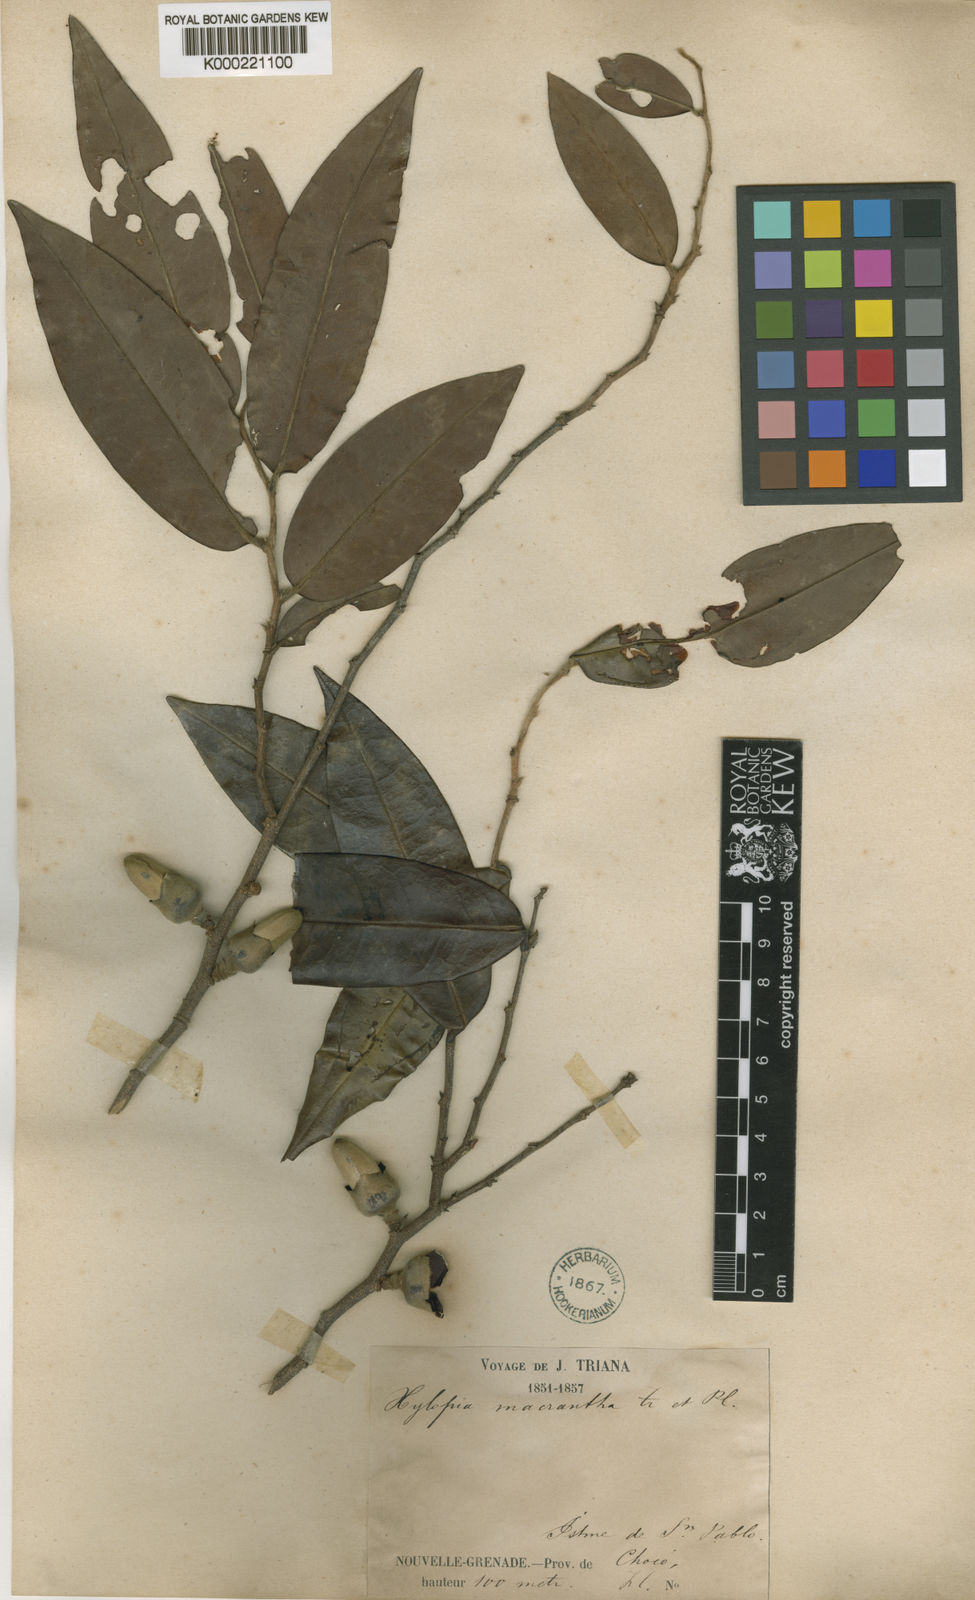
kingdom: Plantae
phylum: Tracheophyta
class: Magnoliopsida
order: Magnoliales
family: Annonaceae
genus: Xylopia
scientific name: Xylopia macrantha
